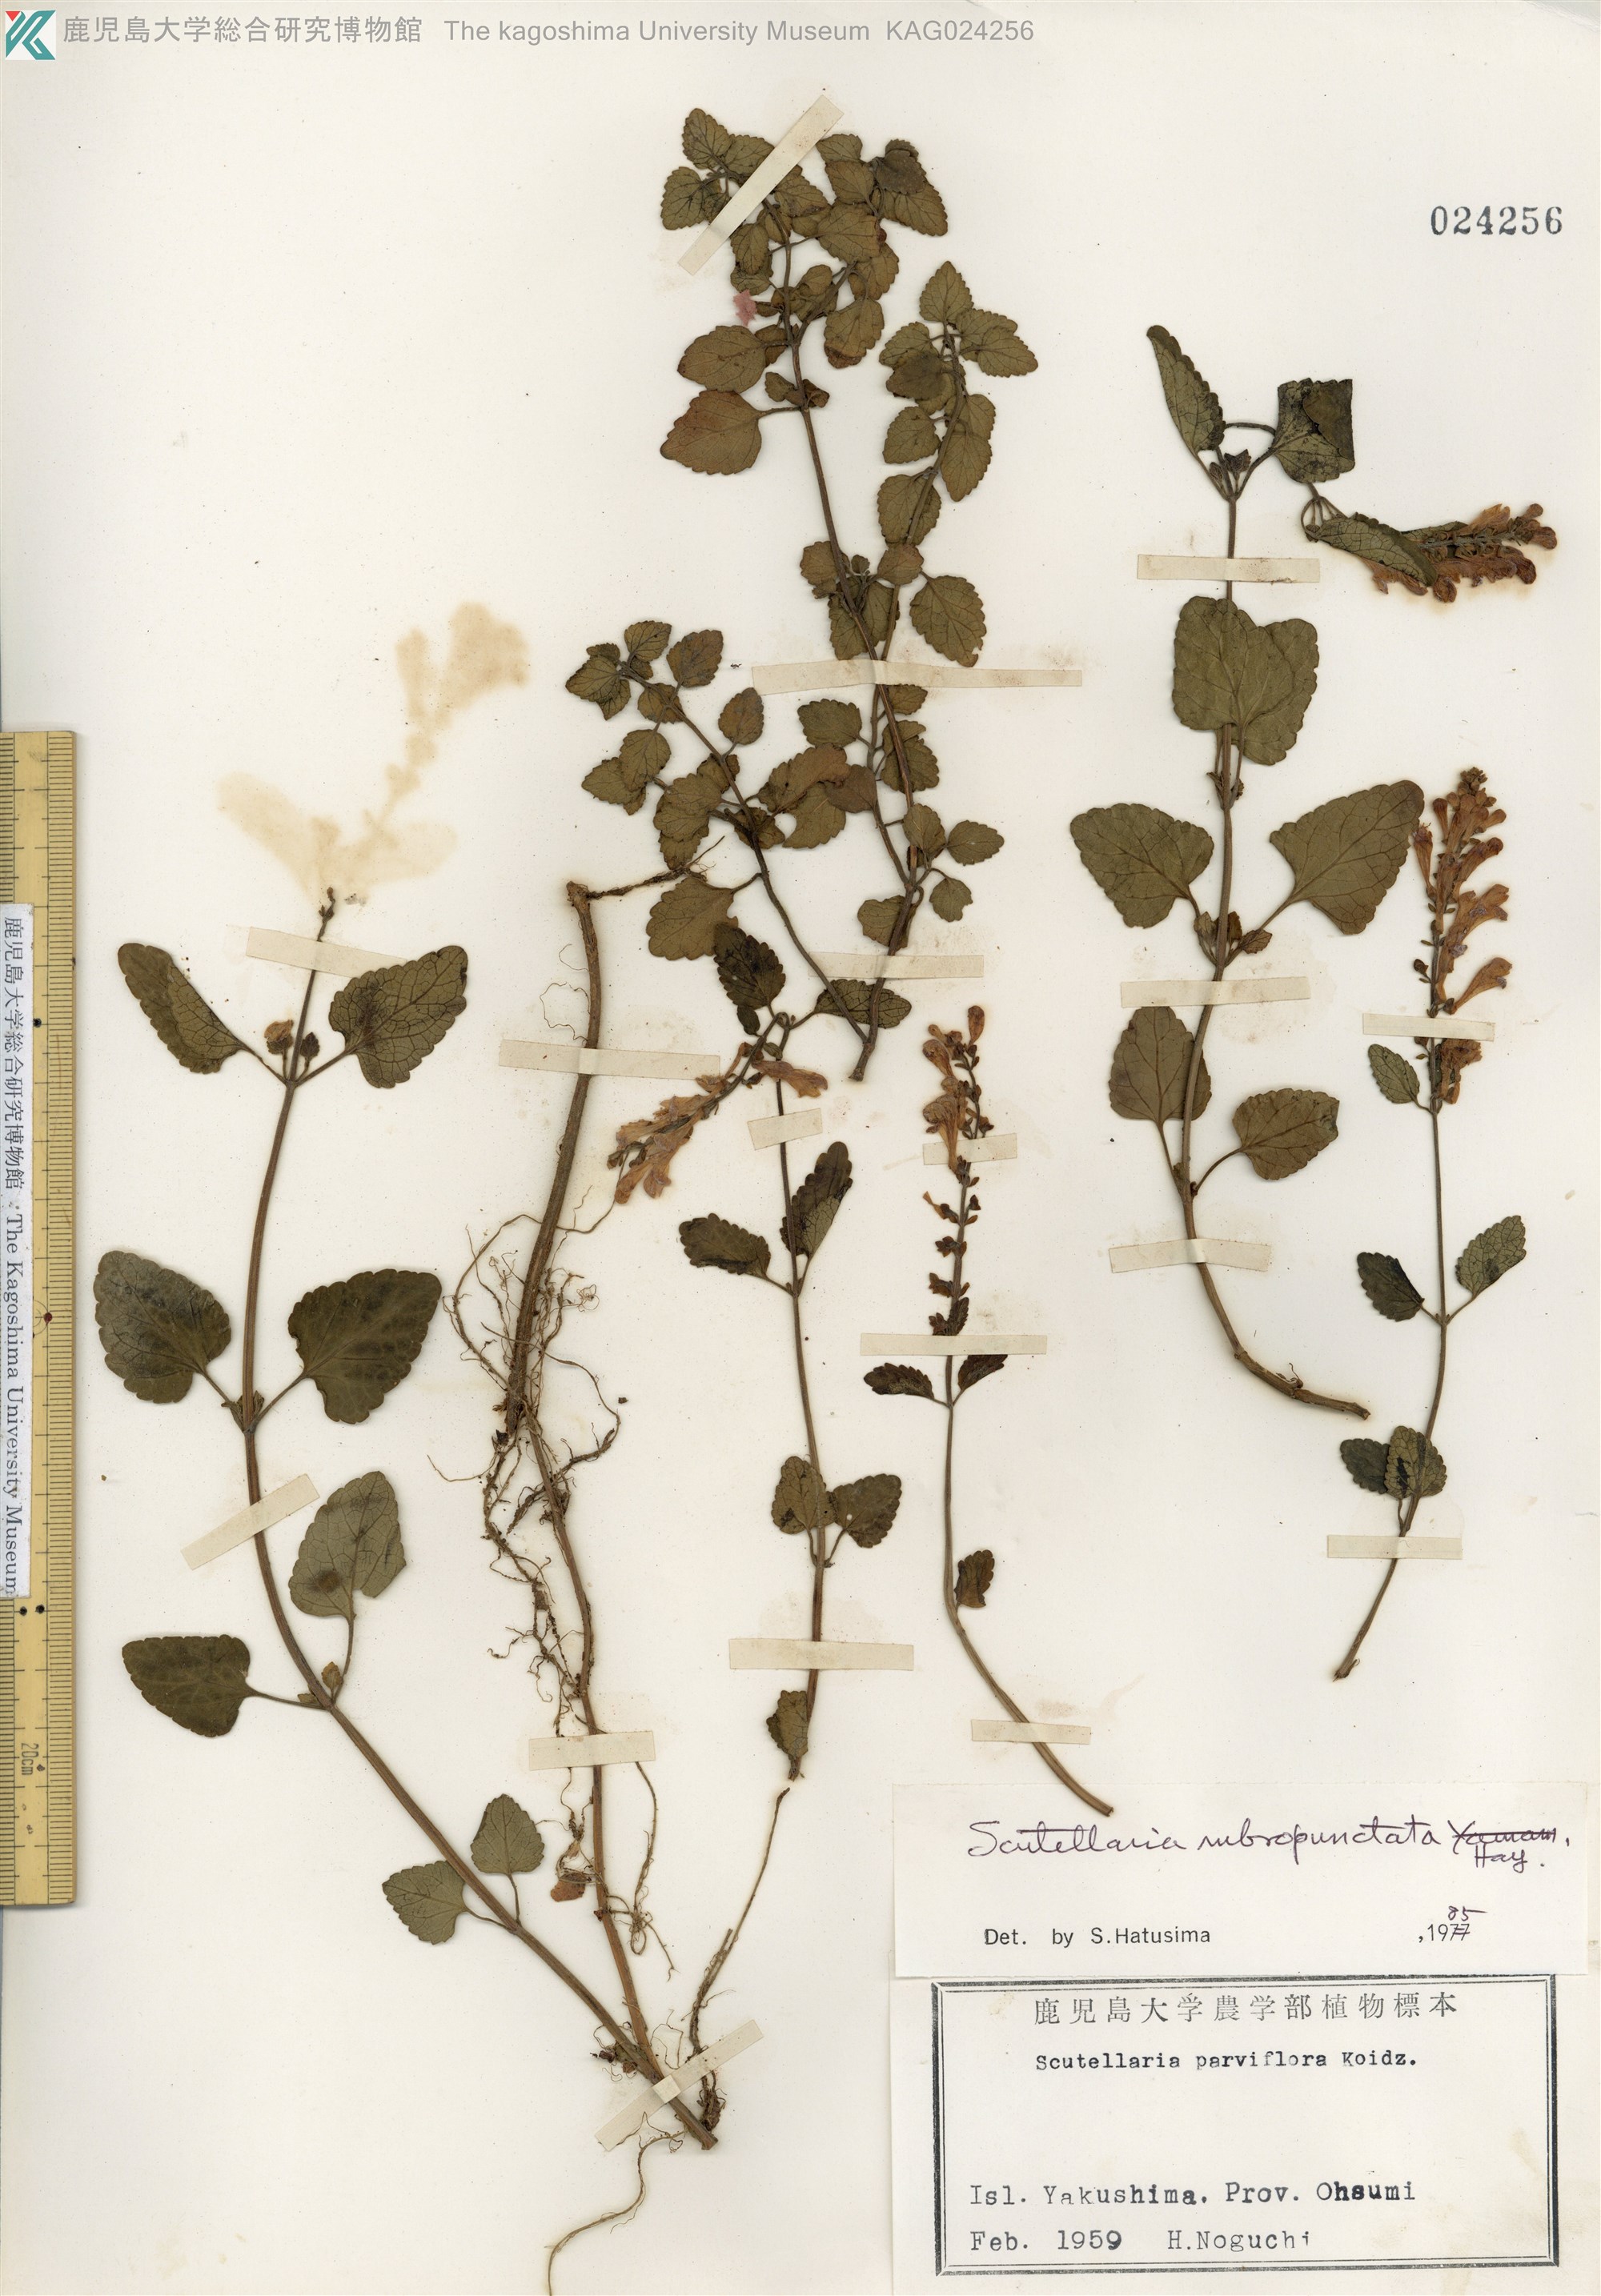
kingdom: Plantae
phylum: Tracheophyta
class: Magnoliopsida
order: Lamiales
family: Lamiaceae
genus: Scutellaria
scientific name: Scutellaria rubropunctata
